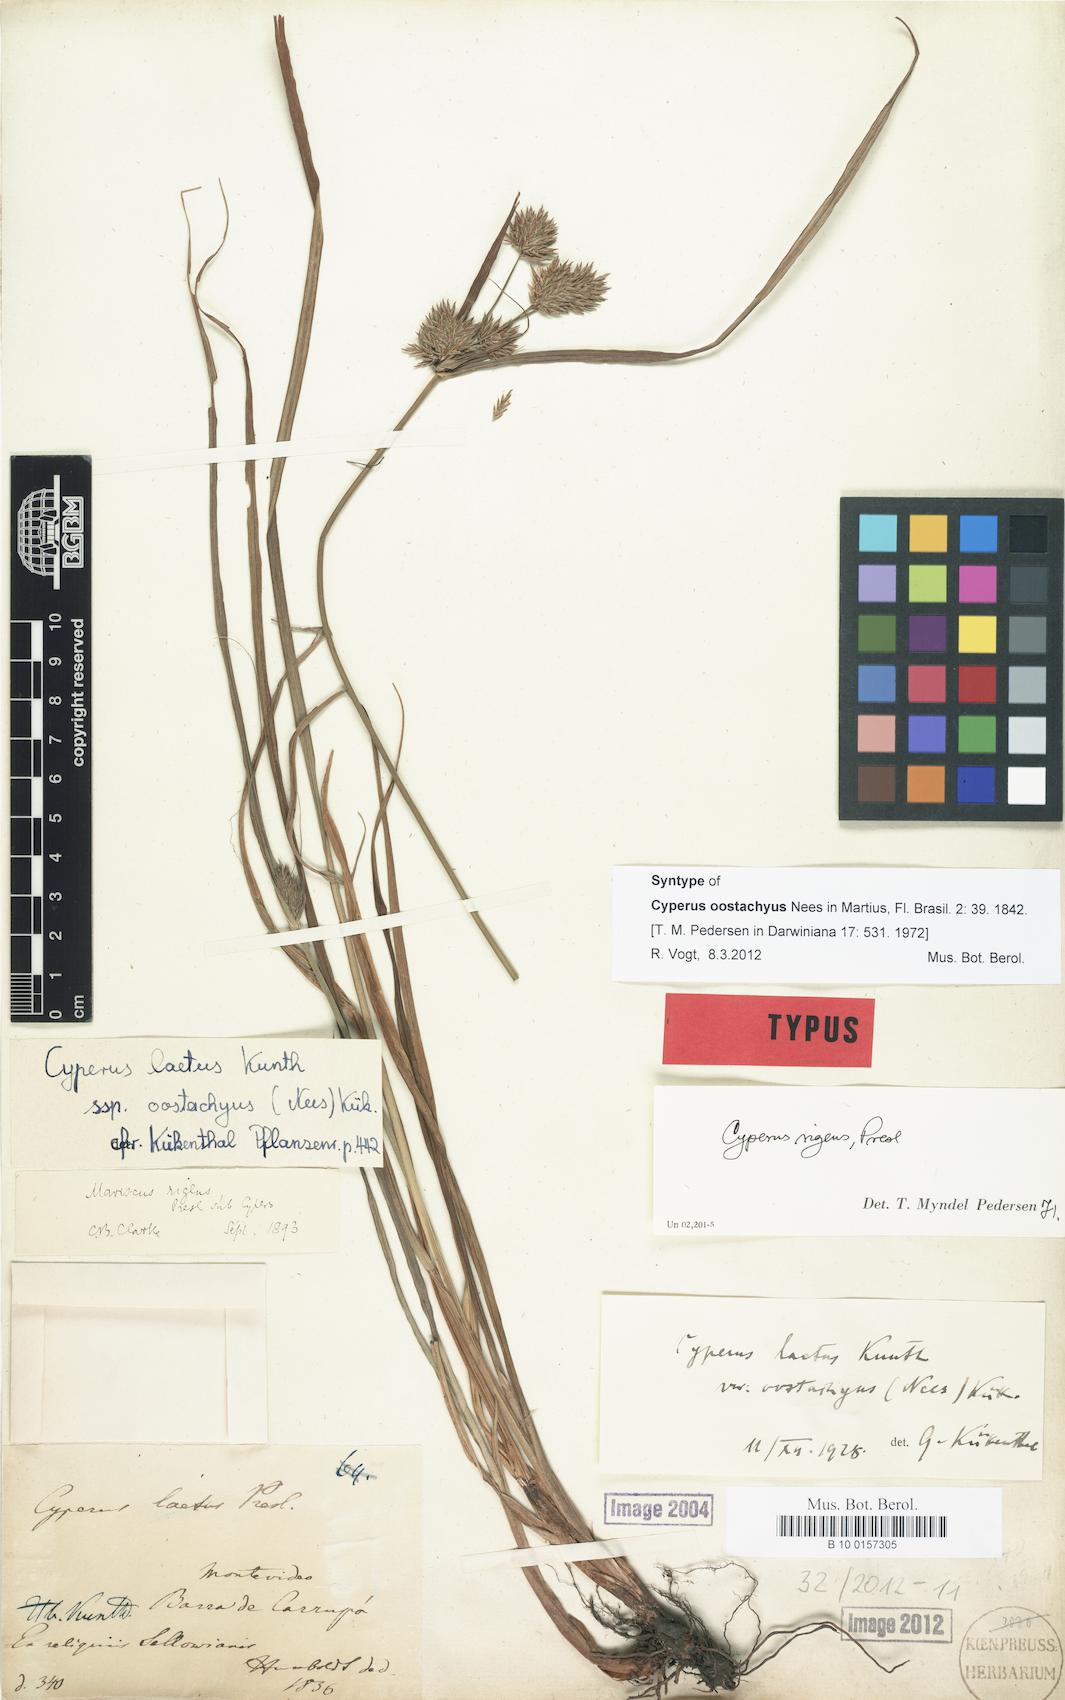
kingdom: Plantae
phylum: Tracheophyta
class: Liliopsida
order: Poales
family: Cyperaceae
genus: Cyperus
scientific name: Cyperus rigens
